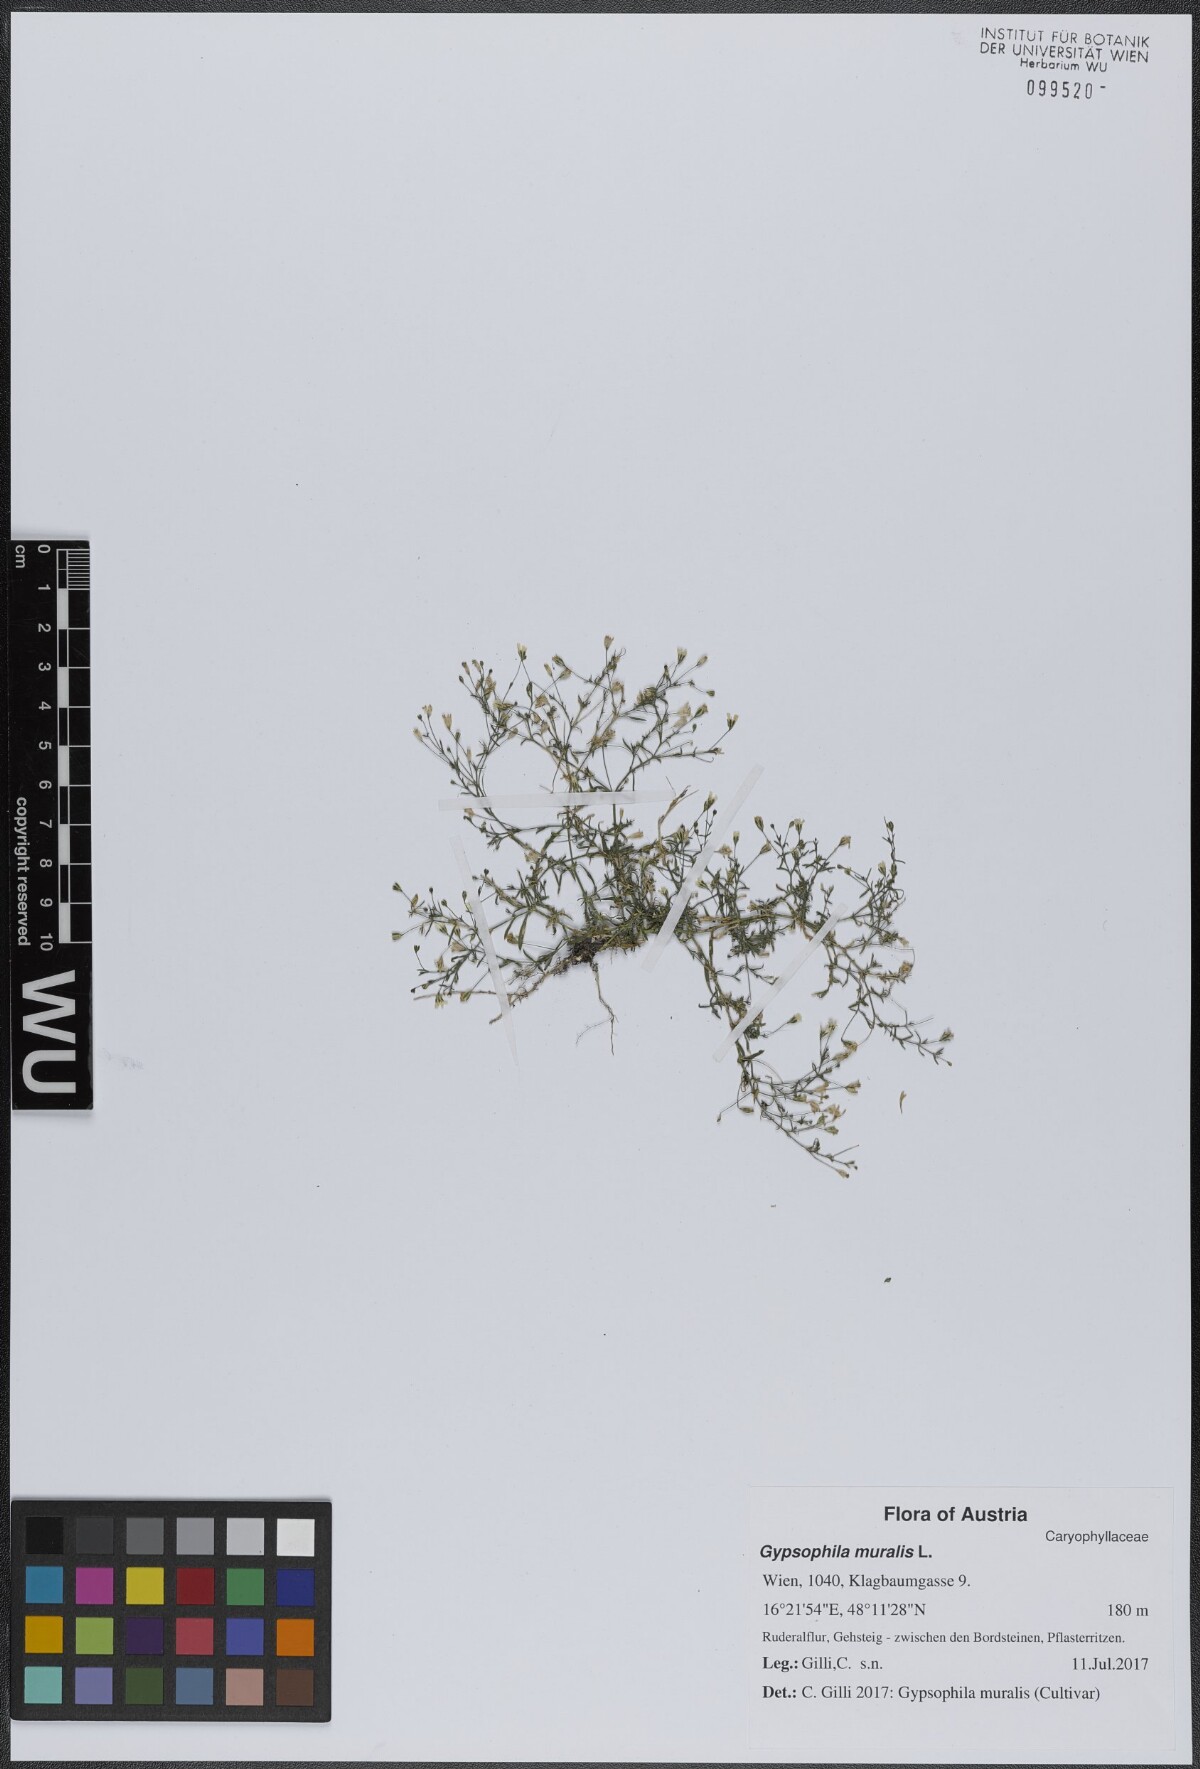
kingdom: Plantae
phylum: Tracheophyta
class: Magnoliopsida
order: Caryophyllales
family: Caryophyllaceae
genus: Psammophiliella
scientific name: Psammophiliella muralis
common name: Cushion baby's-breath
